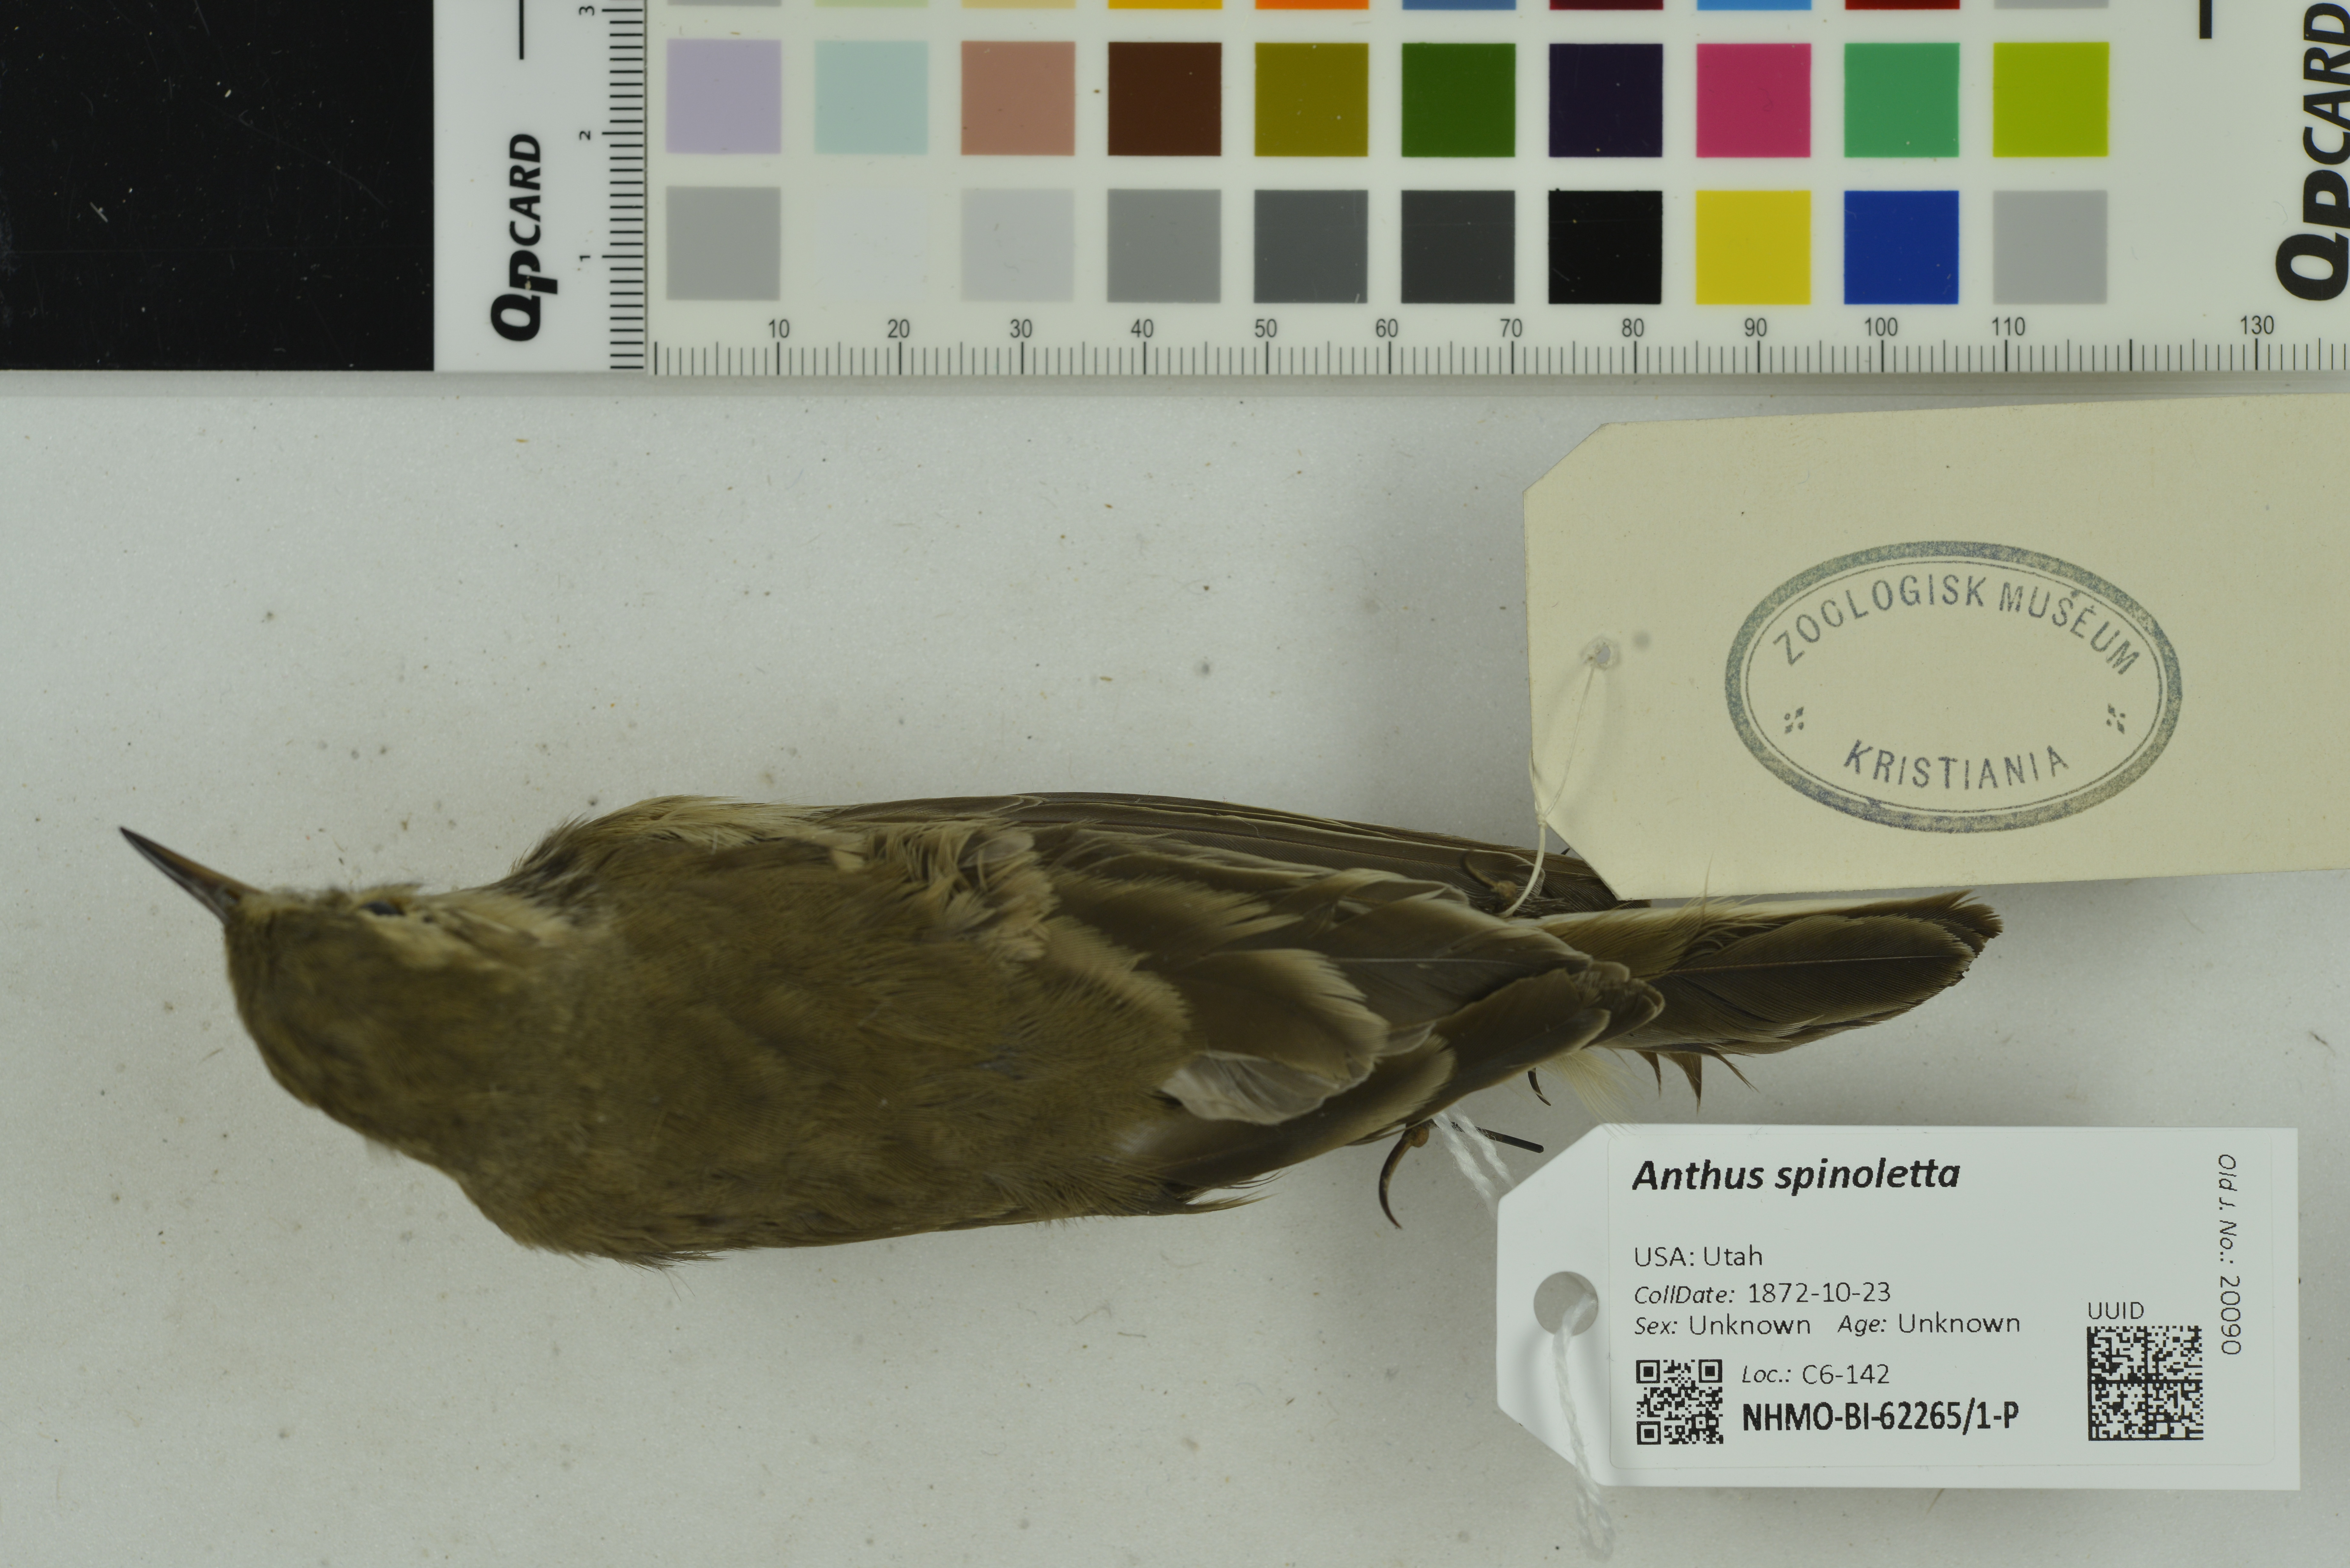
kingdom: Animalia
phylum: Chordata
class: Aves
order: Passeriformes
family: Motacillidae
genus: Anthus
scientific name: Anthus spinoletta
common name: Water pipit
